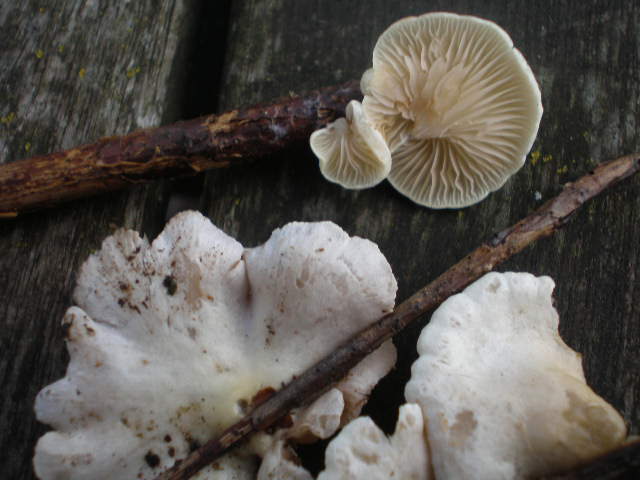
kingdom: Fungi
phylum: Basidiomycota
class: Agaricomycetes
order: Agaricales
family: Crepidotaceae
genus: Crepidotus
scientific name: Crepidotus luteolus
